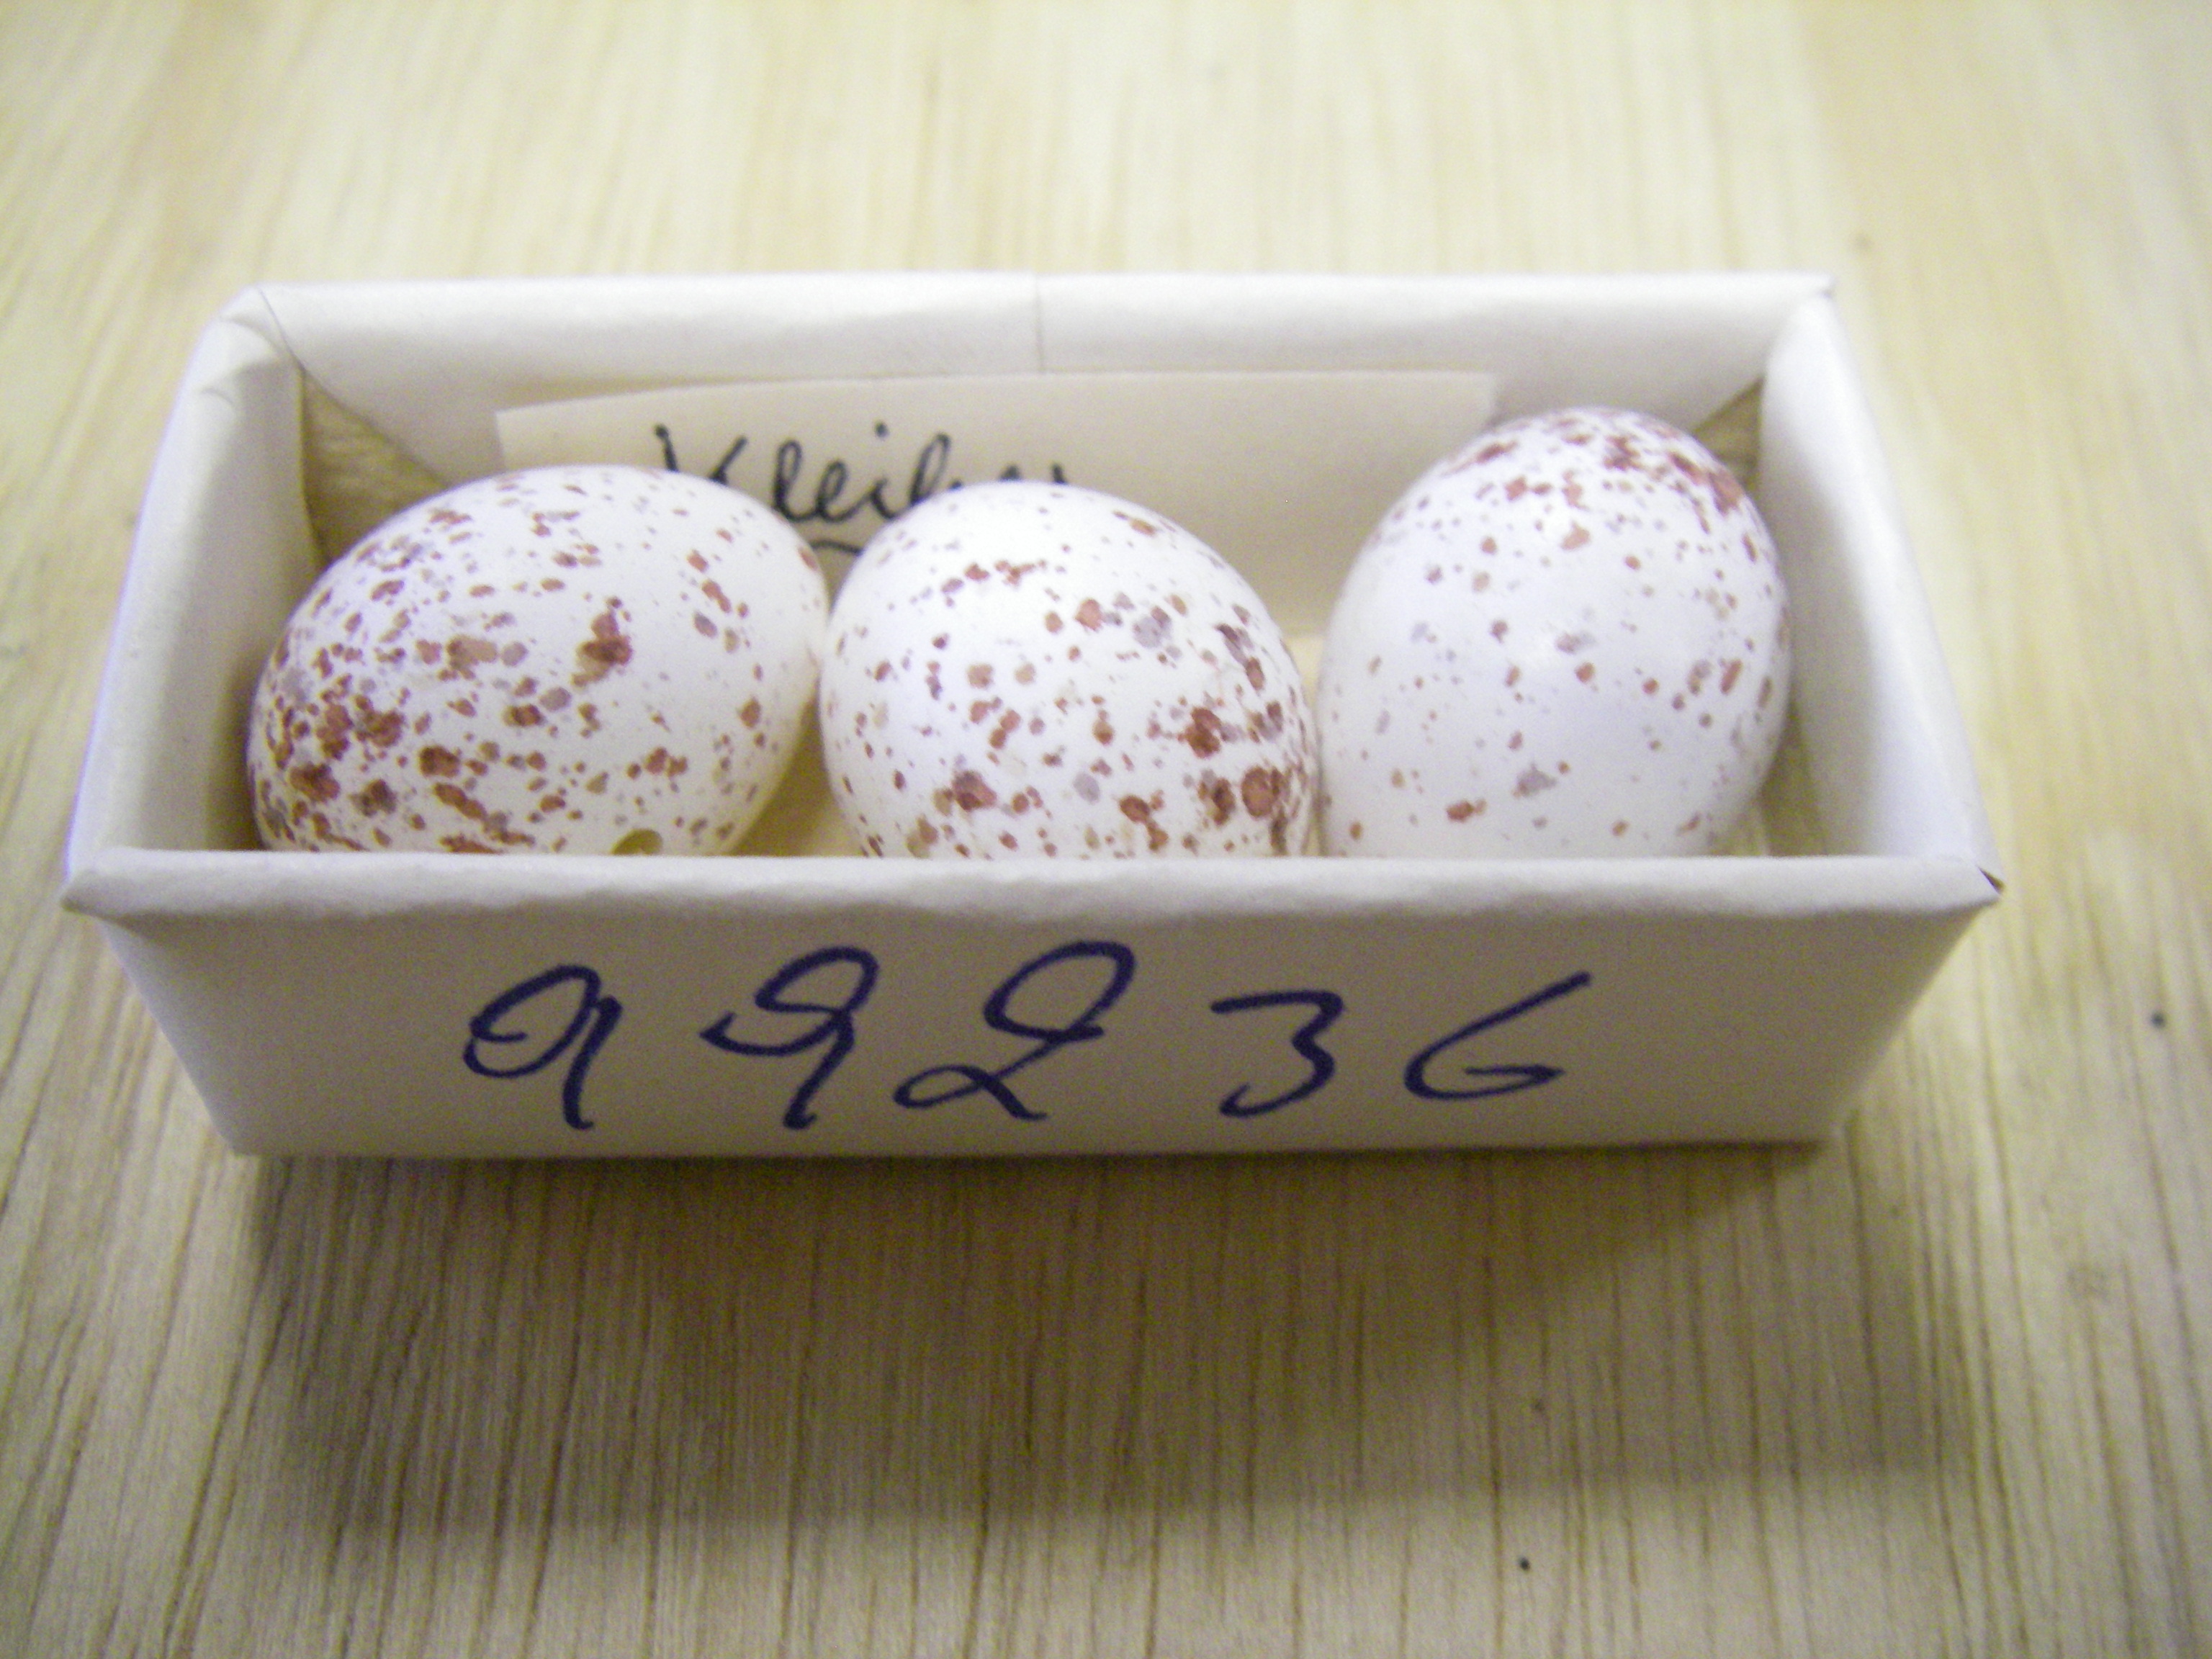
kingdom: Animalia
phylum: Chordata
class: Aves
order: Passeriformes
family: Sittidae
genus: Sitta
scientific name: Sitta europaea
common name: Eurasian nuthatch
